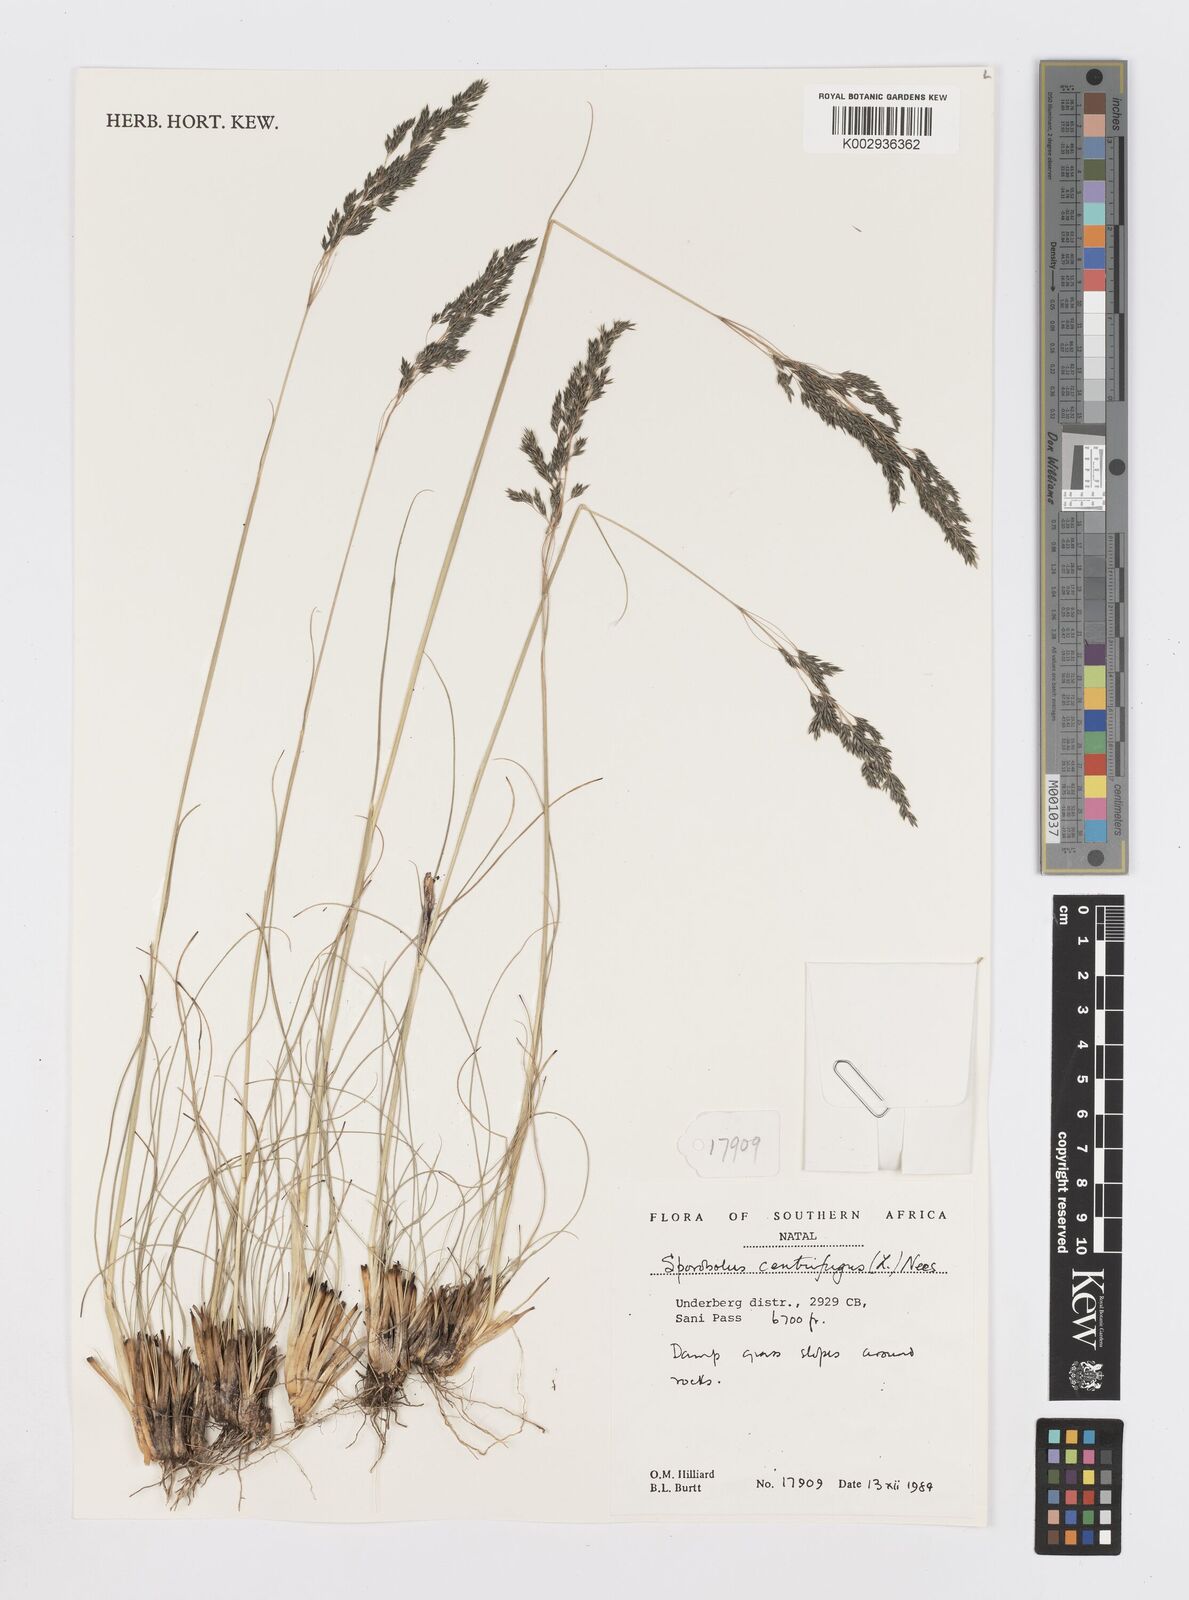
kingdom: Plantae
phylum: Tracheophyta
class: Liliopsida
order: Poales
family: Poaceae
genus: Sporobolus
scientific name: Sporobolus centrifugus
